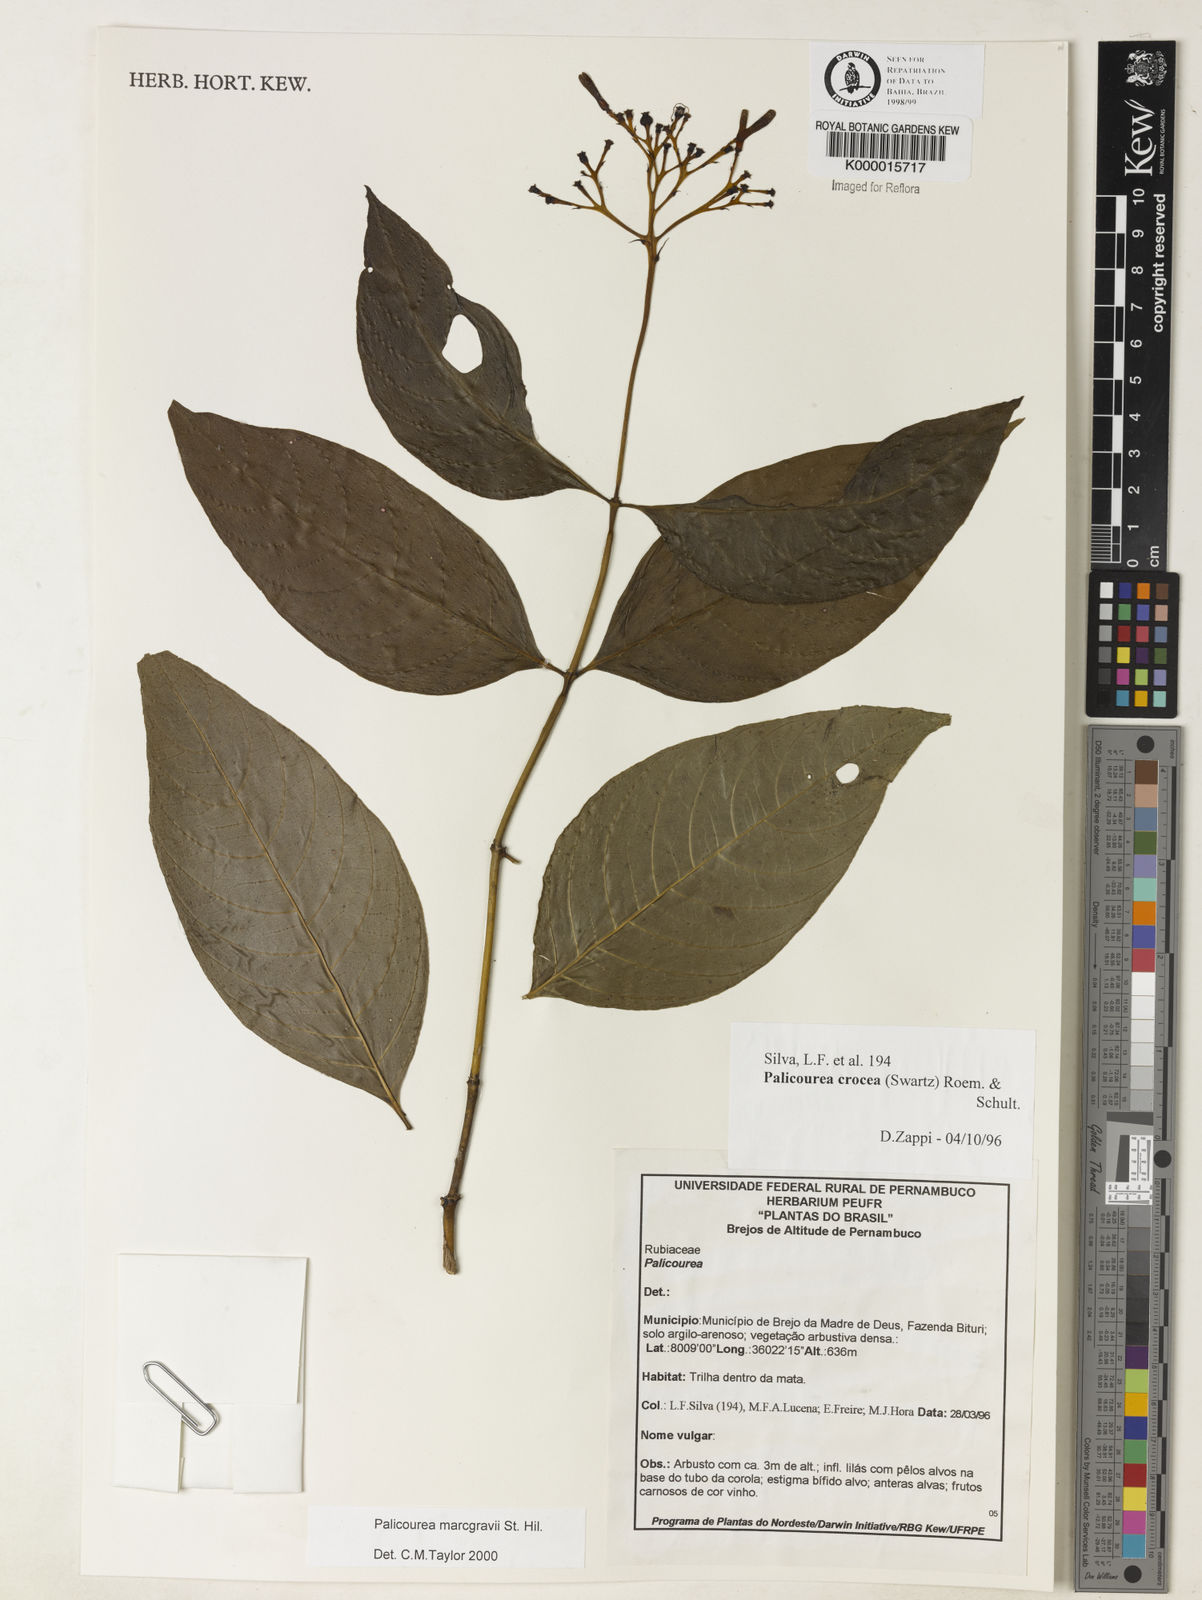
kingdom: Plantae
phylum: Tracheophyta
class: Magnoliopsida
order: Gentianales
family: Rubiaceae
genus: Palicourea
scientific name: Palicourea marcgravii
